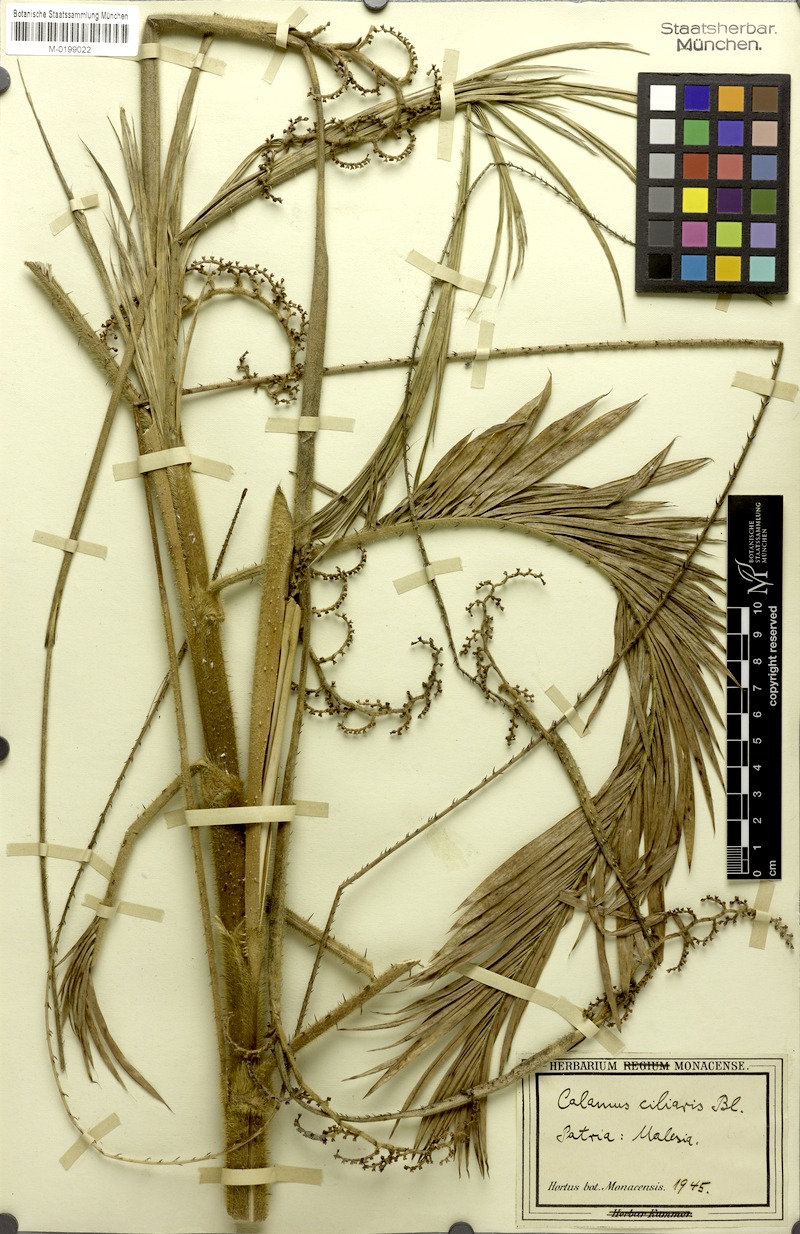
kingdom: Plantae
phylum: Tracheophyta
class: Liliopsida
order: Arecales
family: Arecaceae
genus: Calamus
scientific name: Calamus ciliaris
